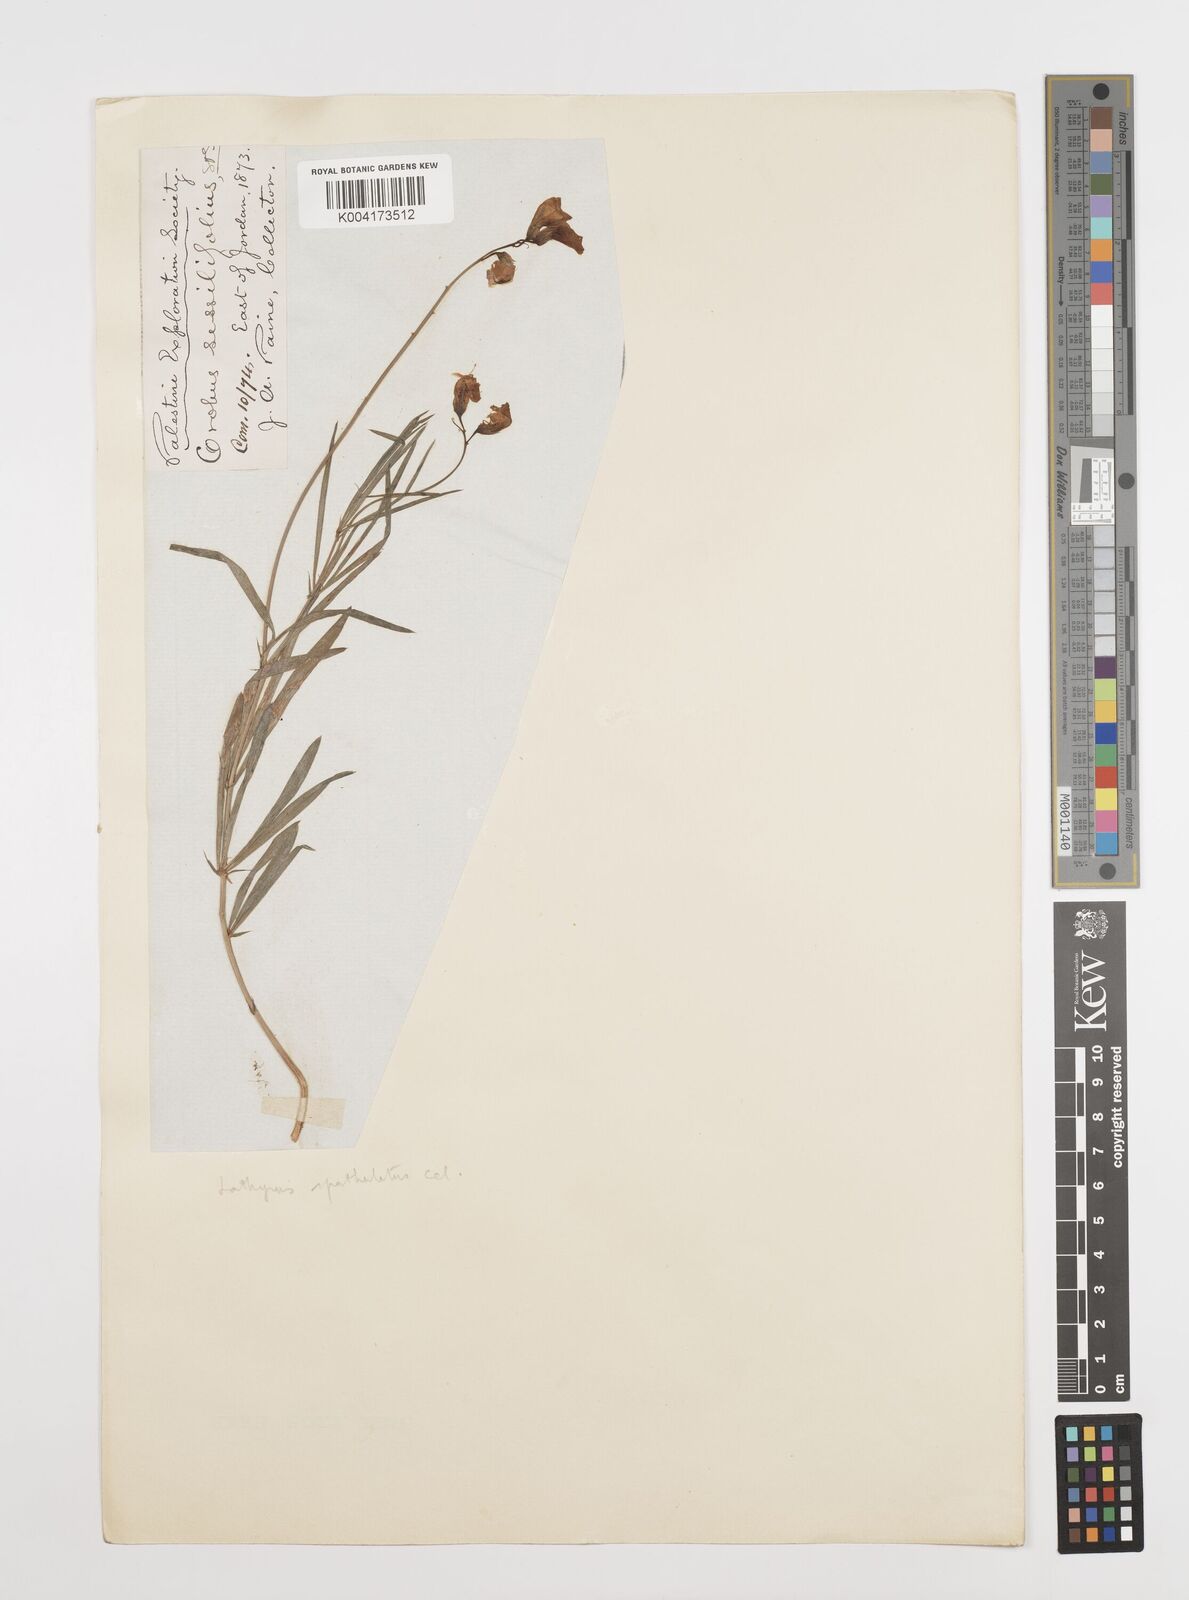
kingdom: Plantae
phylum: Tracheophyta
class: Magnoliopsida
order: Fabales
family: Fabaceae
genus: Lathyrus
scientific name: Lathyrus spathulatus
